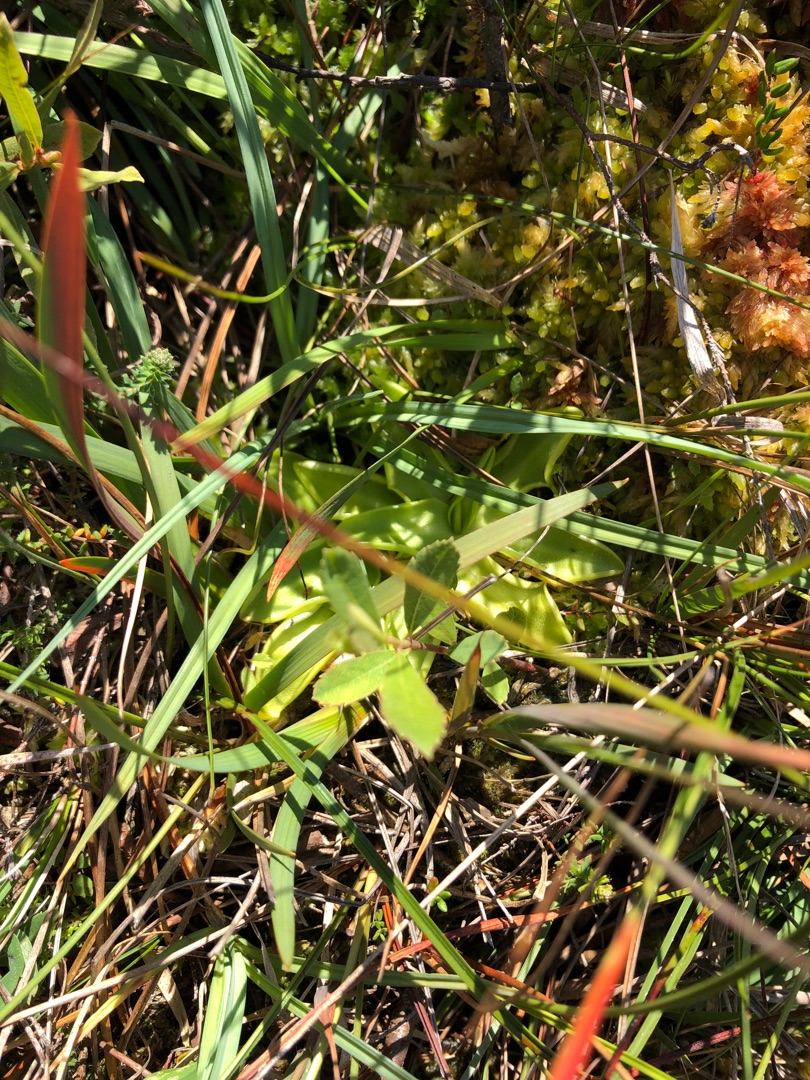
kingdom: Plantae
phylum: Tracheophyta
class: Magnoliopsida
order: Lamiales
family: Lentibulariaceae
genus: Pinguicula
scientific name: Pinguicula vulgaris
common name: Vibefedt
